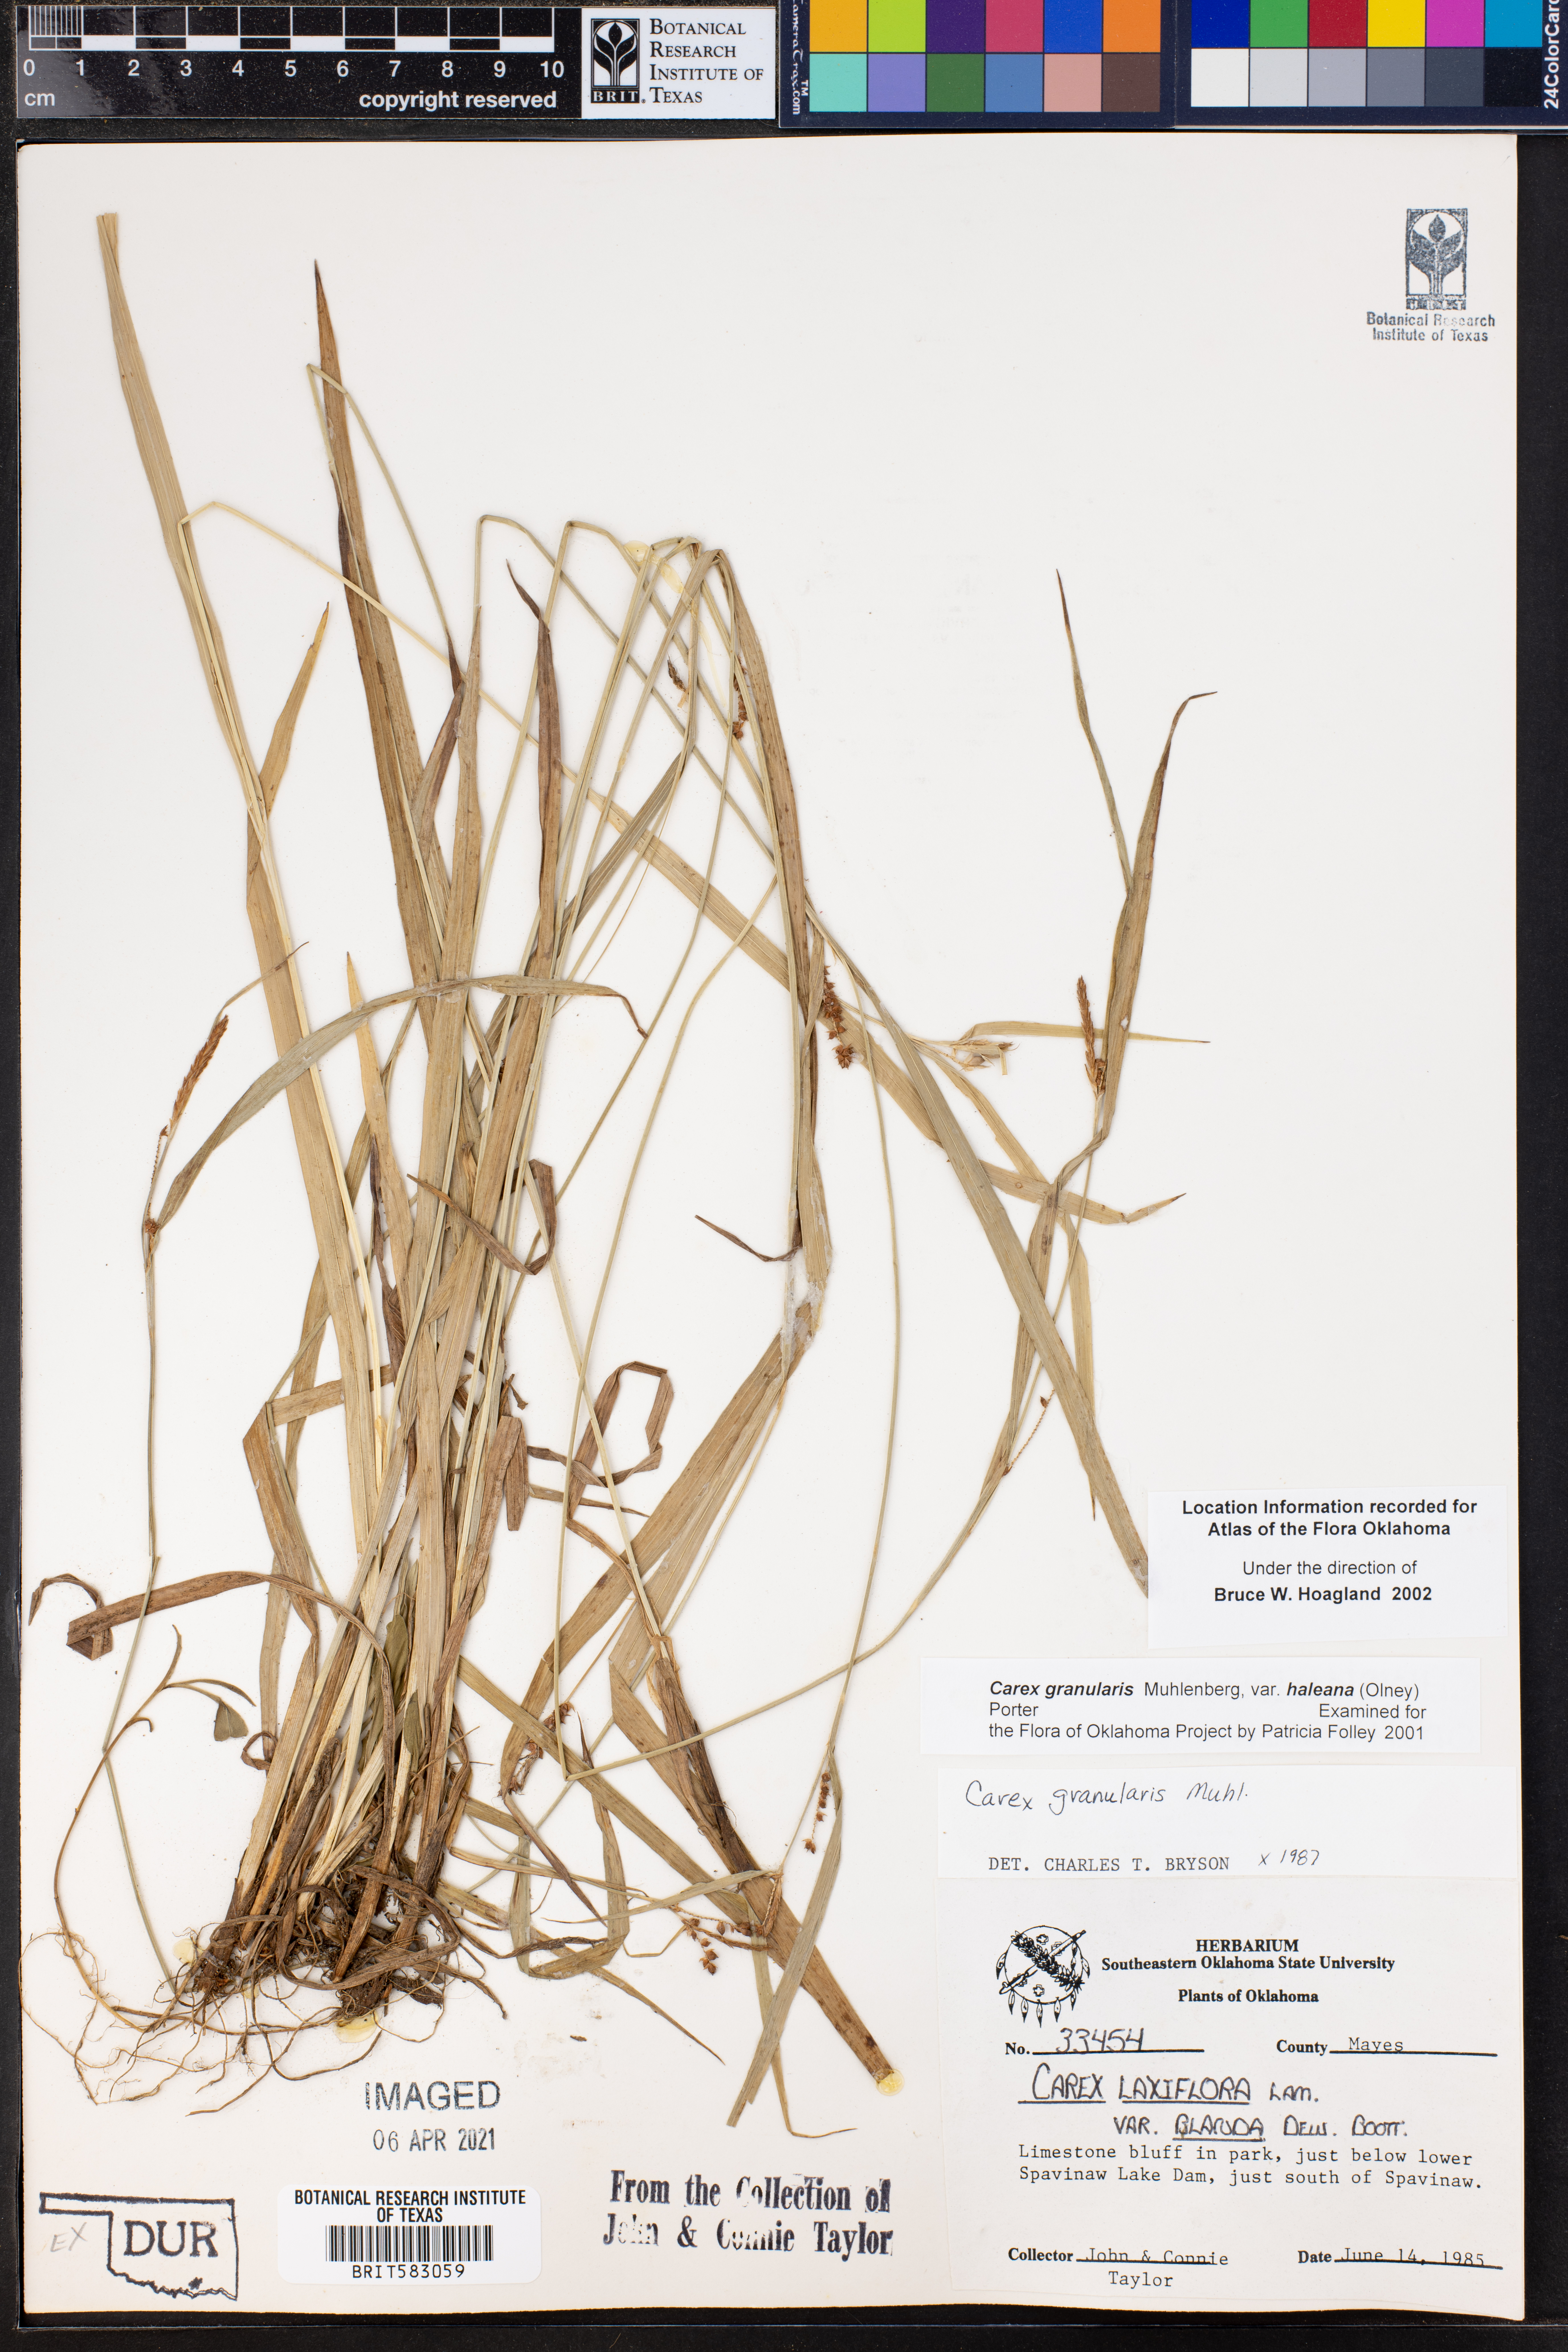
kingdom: Plantae
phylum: Tracheophyta
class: Liliopsida
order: Poales
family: Cyperaceae
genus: Carex
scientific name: Carex granularis
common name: Granular sedge
